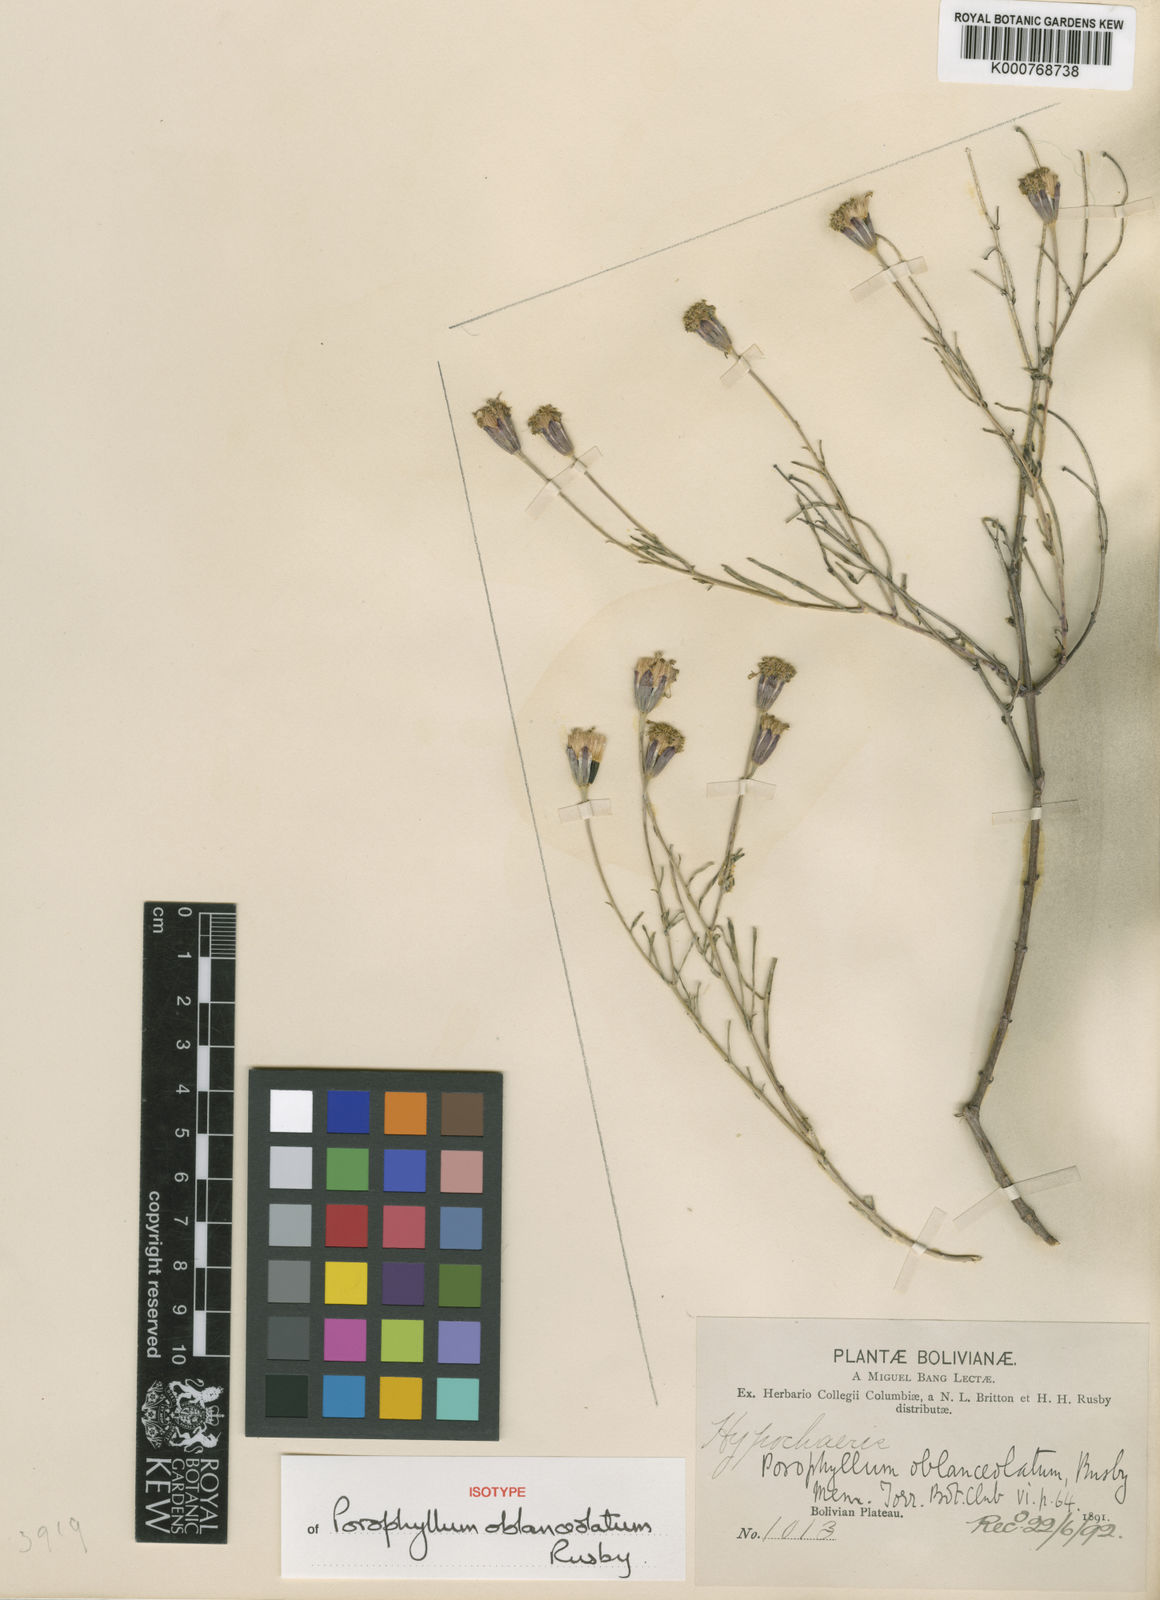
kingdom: Plantae
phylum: Tracheophyta
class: Magnoliopsida
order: Asterales
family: Asteraceae
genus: Porophyllum
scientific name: Porophyllum ruderale
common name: Yerba porosa
